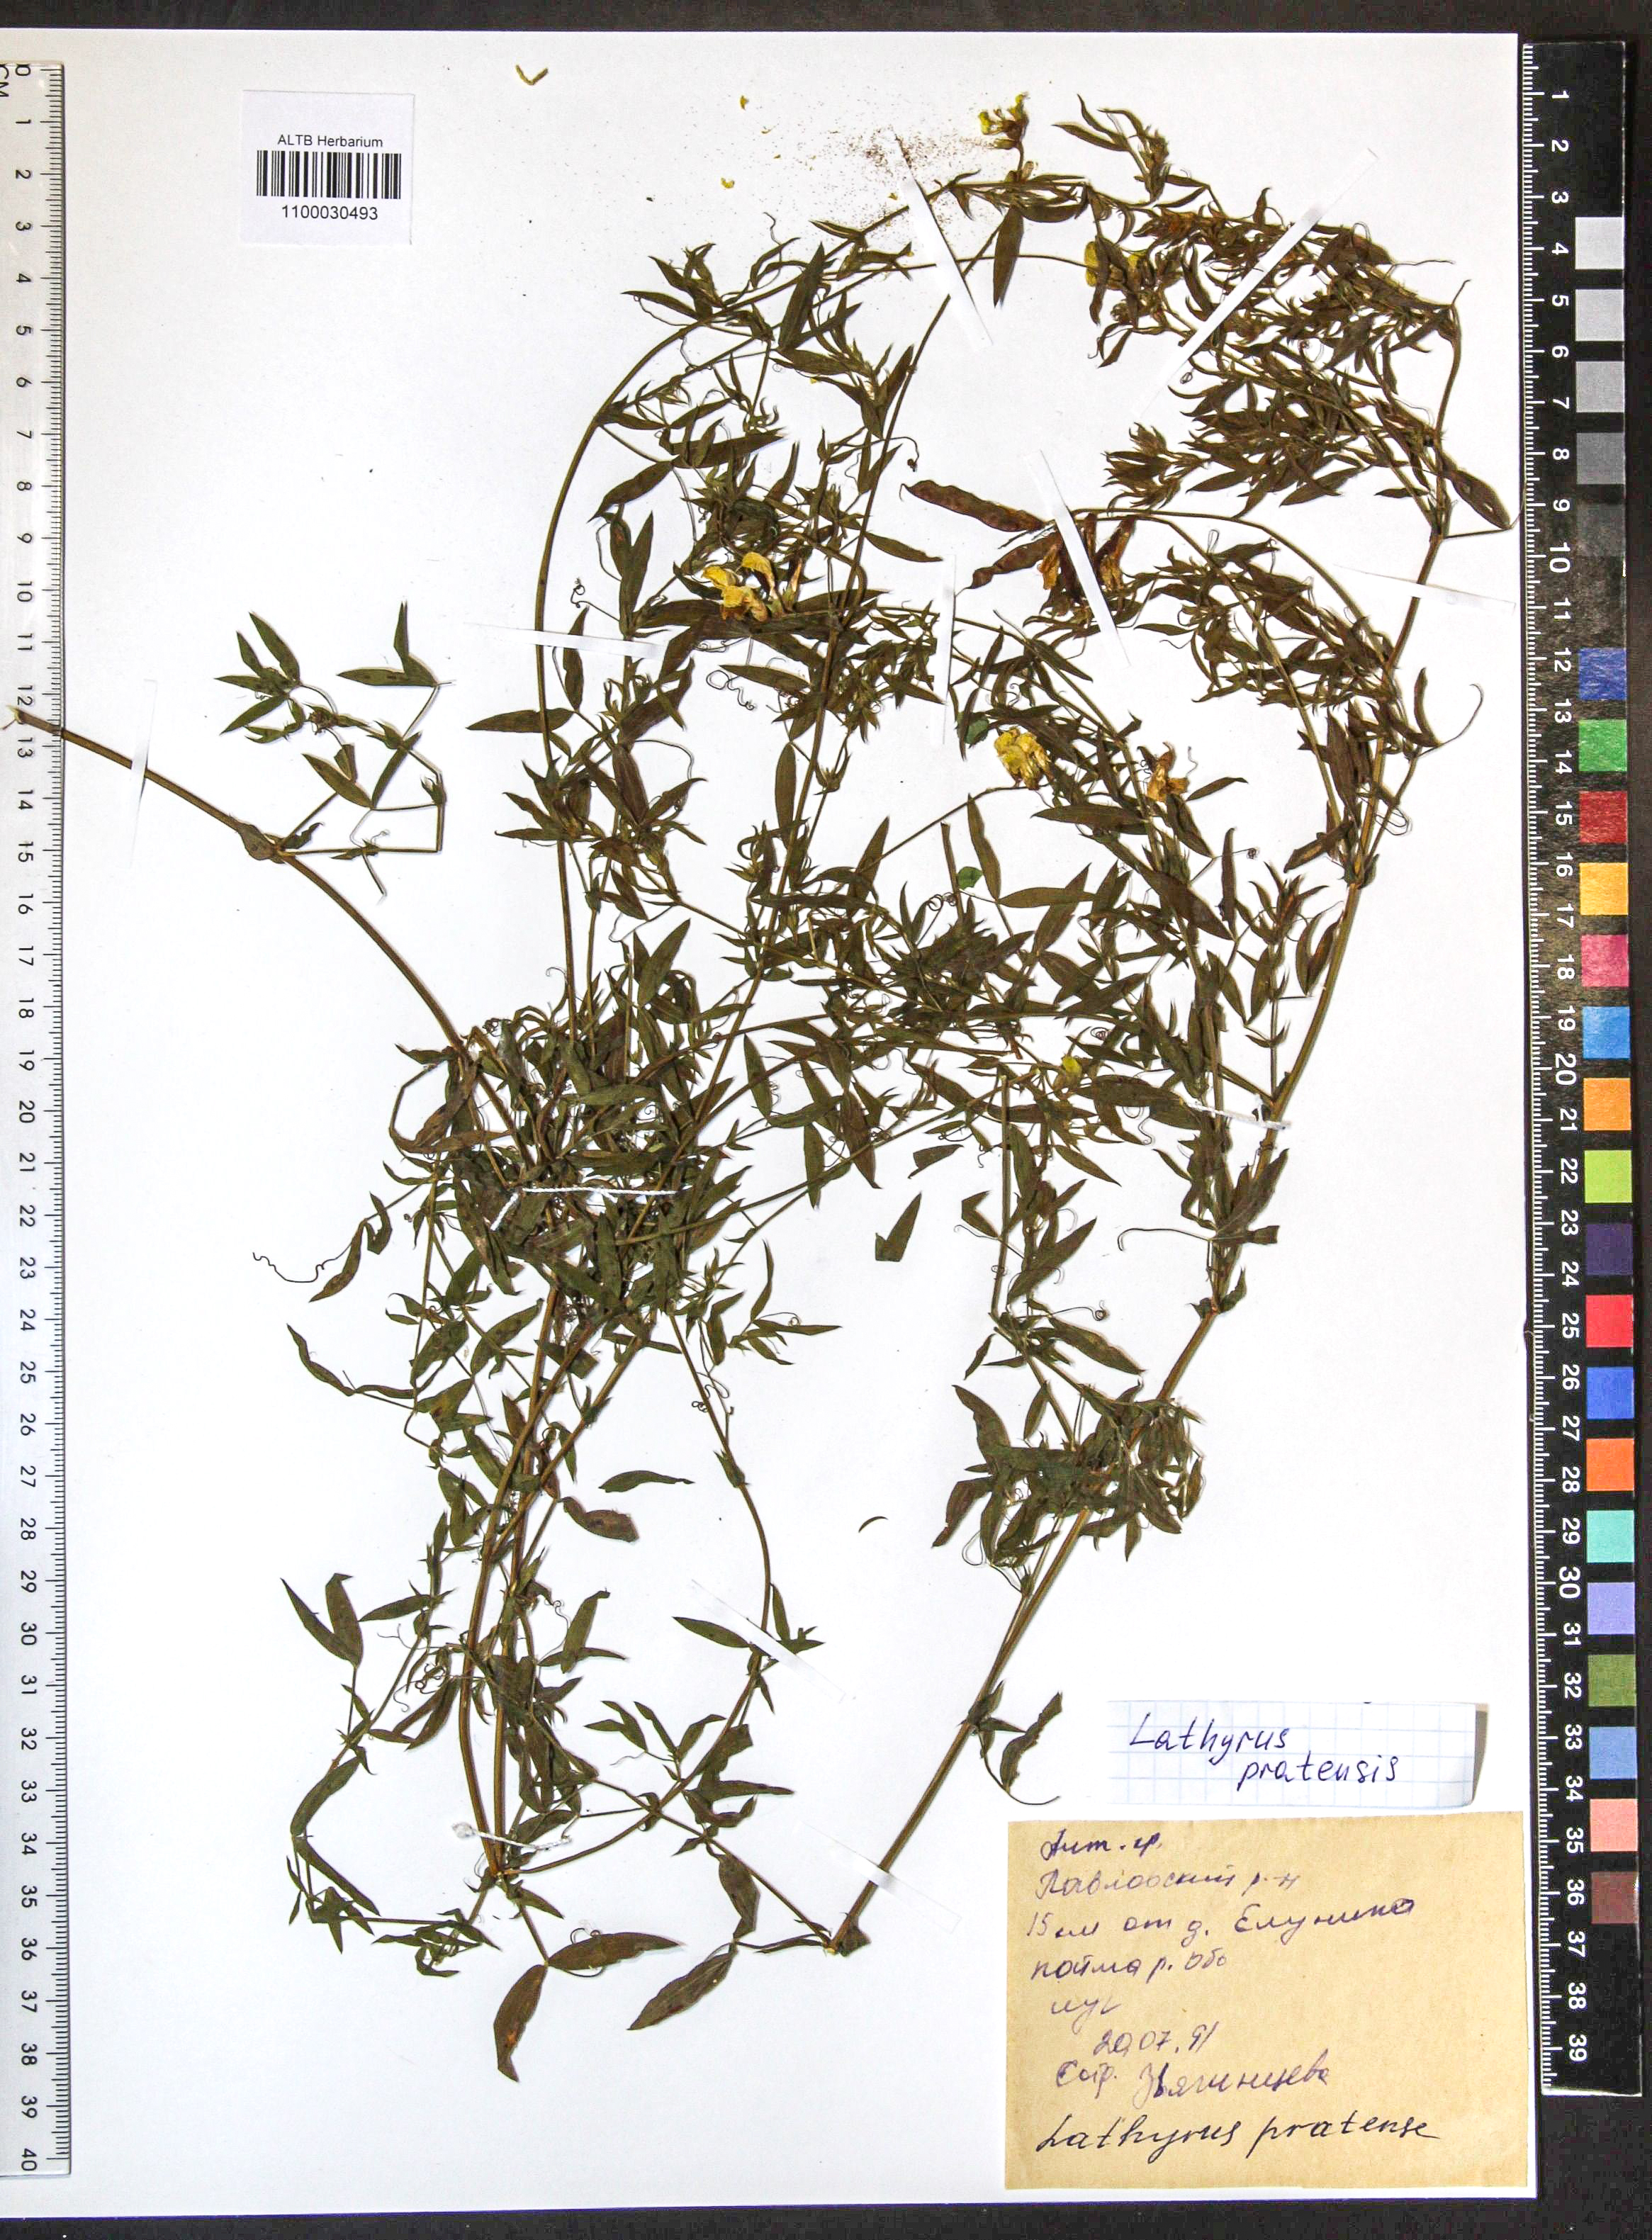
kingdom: Plantae
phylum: Tracheophyta
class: Magnoliopsida
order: Fabales
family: Fabaceae
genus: Lathyrus
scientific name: Lathyrus pratensis
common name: Meadow vetchling
